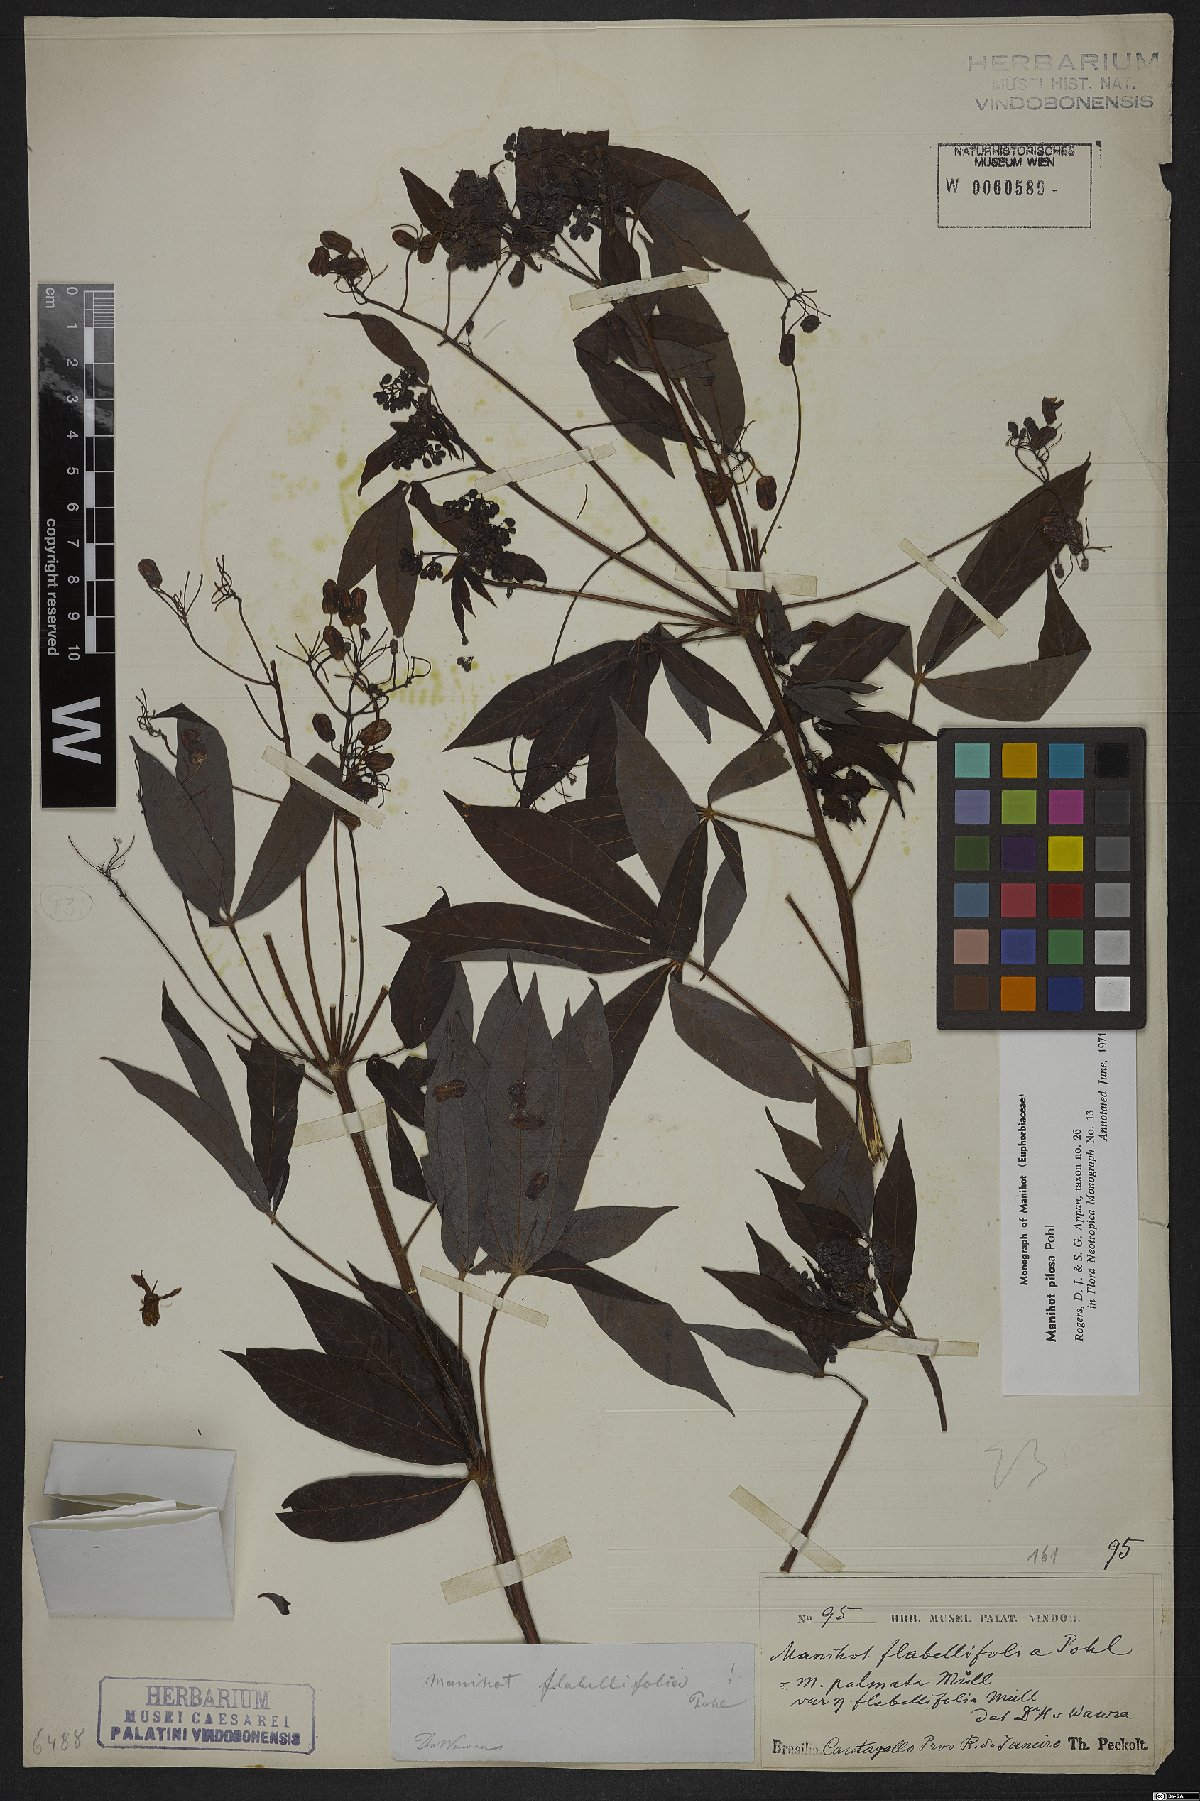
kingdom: Plantae
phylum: Tracheophyta
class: Magnoliopsida
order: Malpighiales
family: Euphorbiaceae
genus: Manihot
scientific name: Manihot pilosa
